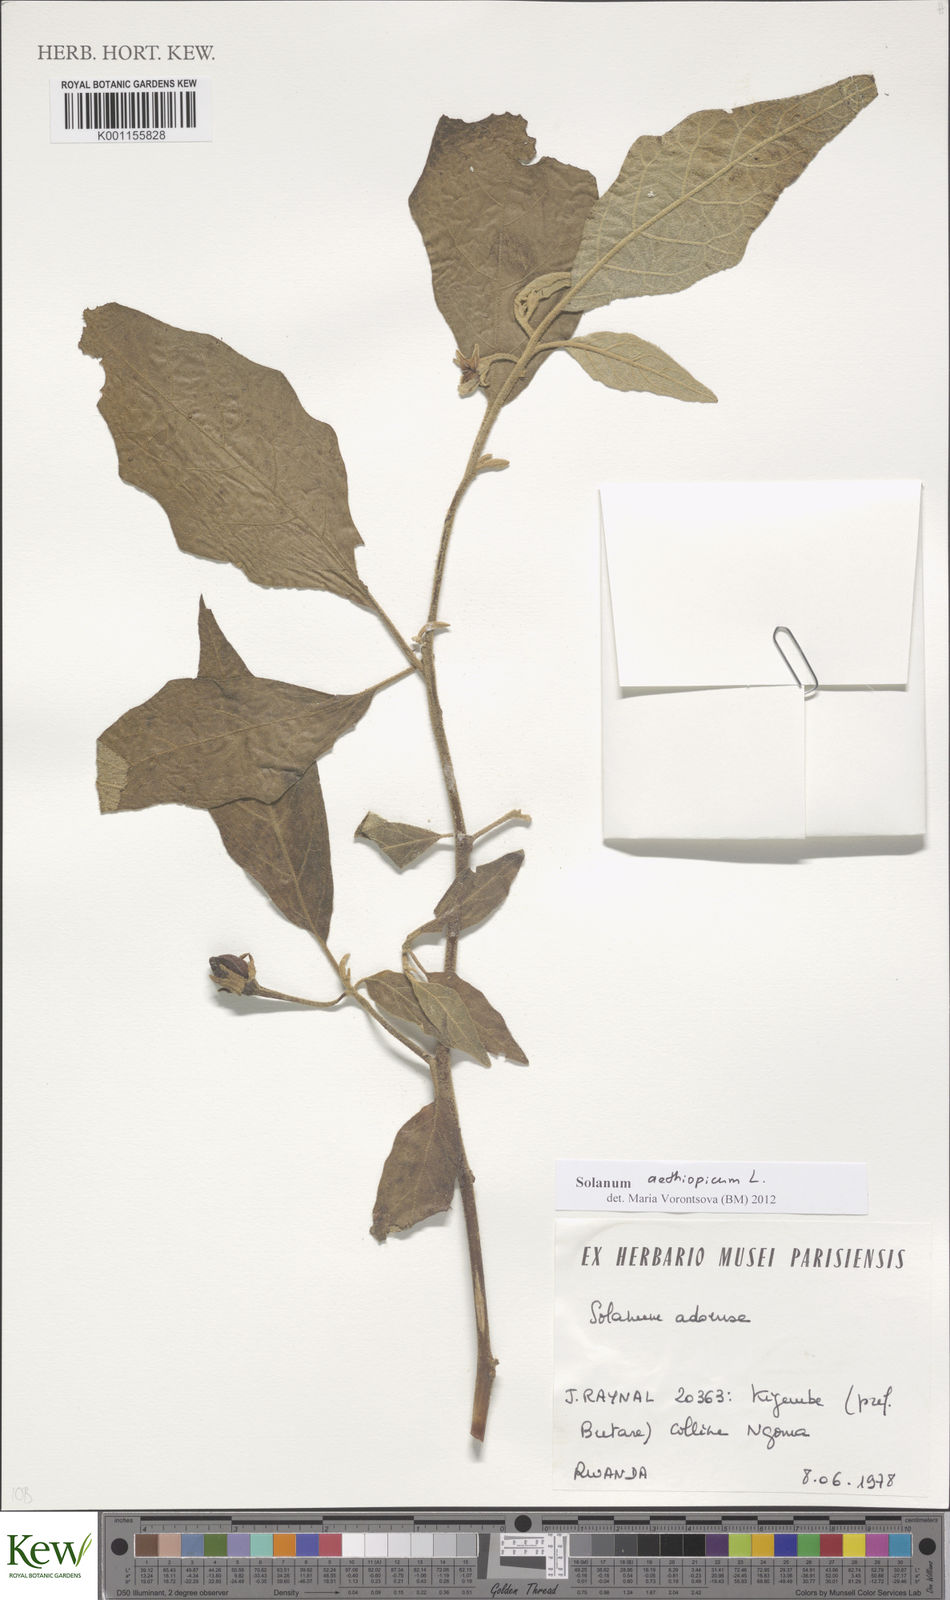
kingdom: Plantae
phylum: Tracheophyta
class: Magnoliopsida
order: Solanales
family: Solanaceae
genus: Solanum
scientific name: Solanum aethiopicum
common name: Gilo
